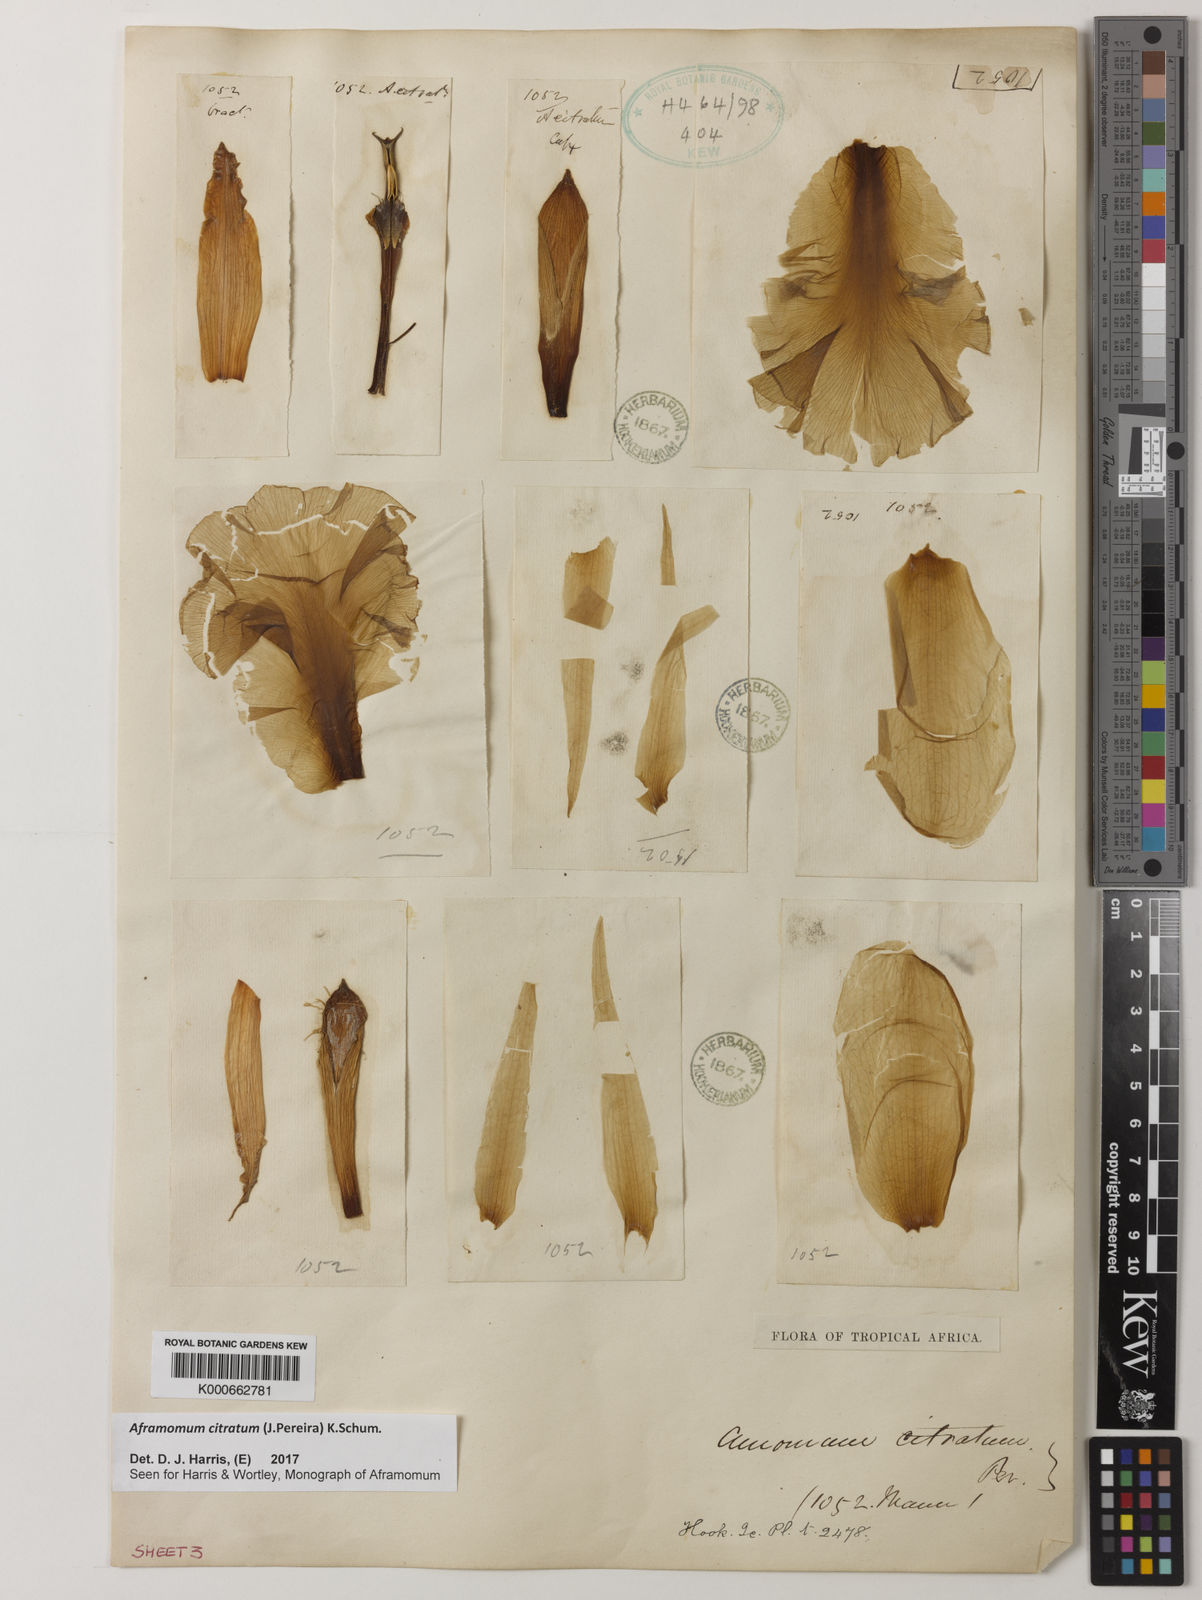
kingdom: Plantae
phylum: Tracheophyta
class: Liliopsida
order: Zingiberales
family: Zingiberaceae
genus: Aframomum
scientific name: Aframomum citratum
